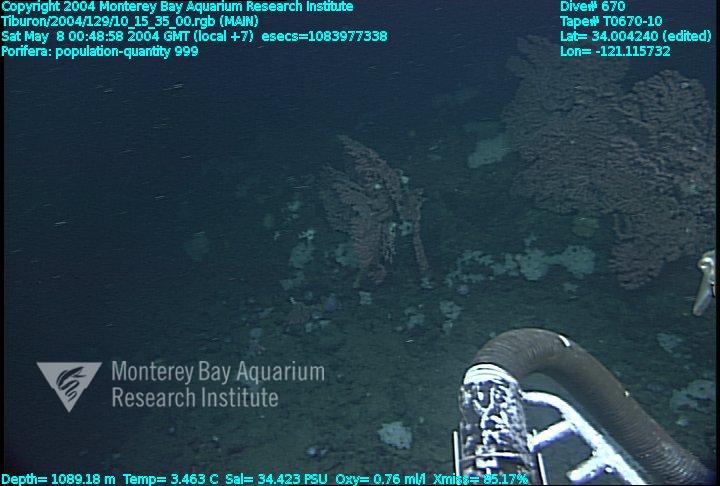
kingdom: Animalia
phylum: Porifera
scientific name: Porifera
